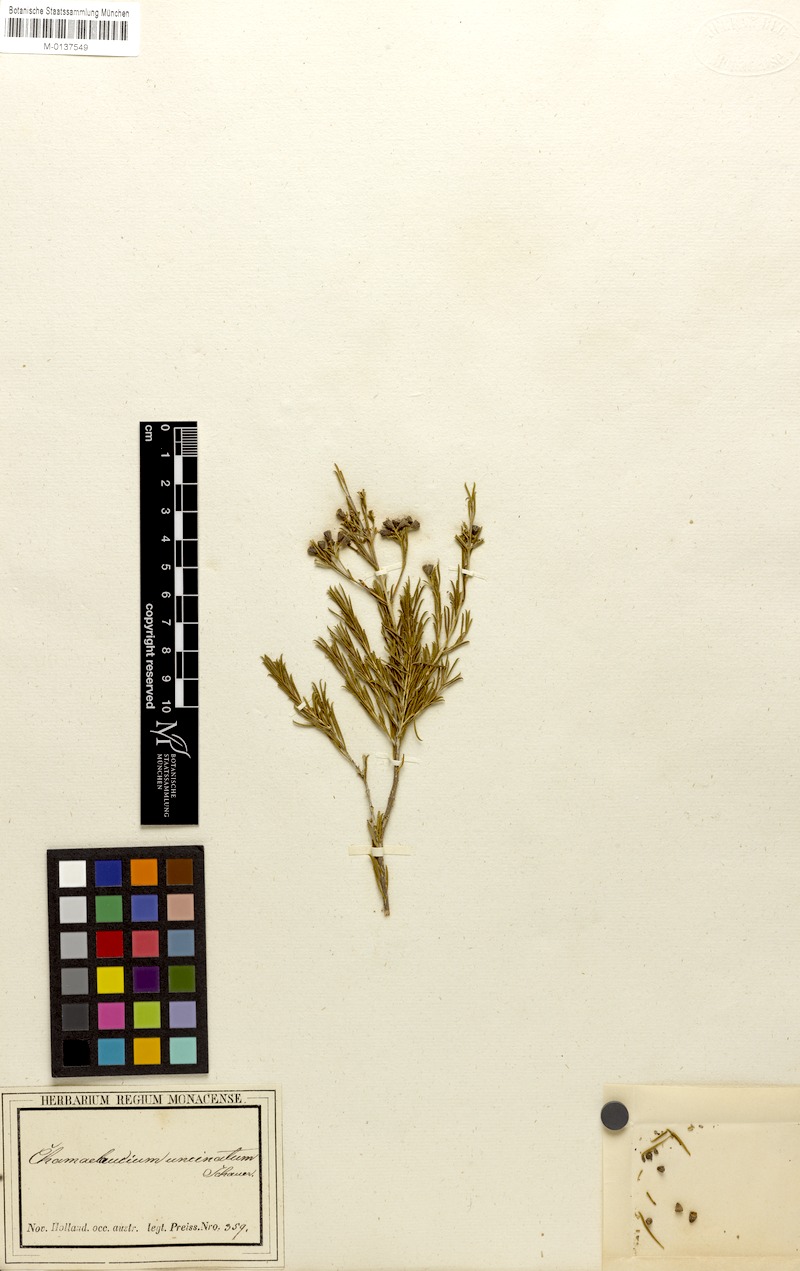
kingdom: Plantae
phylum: Tracheophyta
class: Magnoliopsida
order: Myrtales
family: Myrtaceae
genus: Chamelaucium
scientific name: Chamelaucium uncinatum
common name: Geraldton wax
